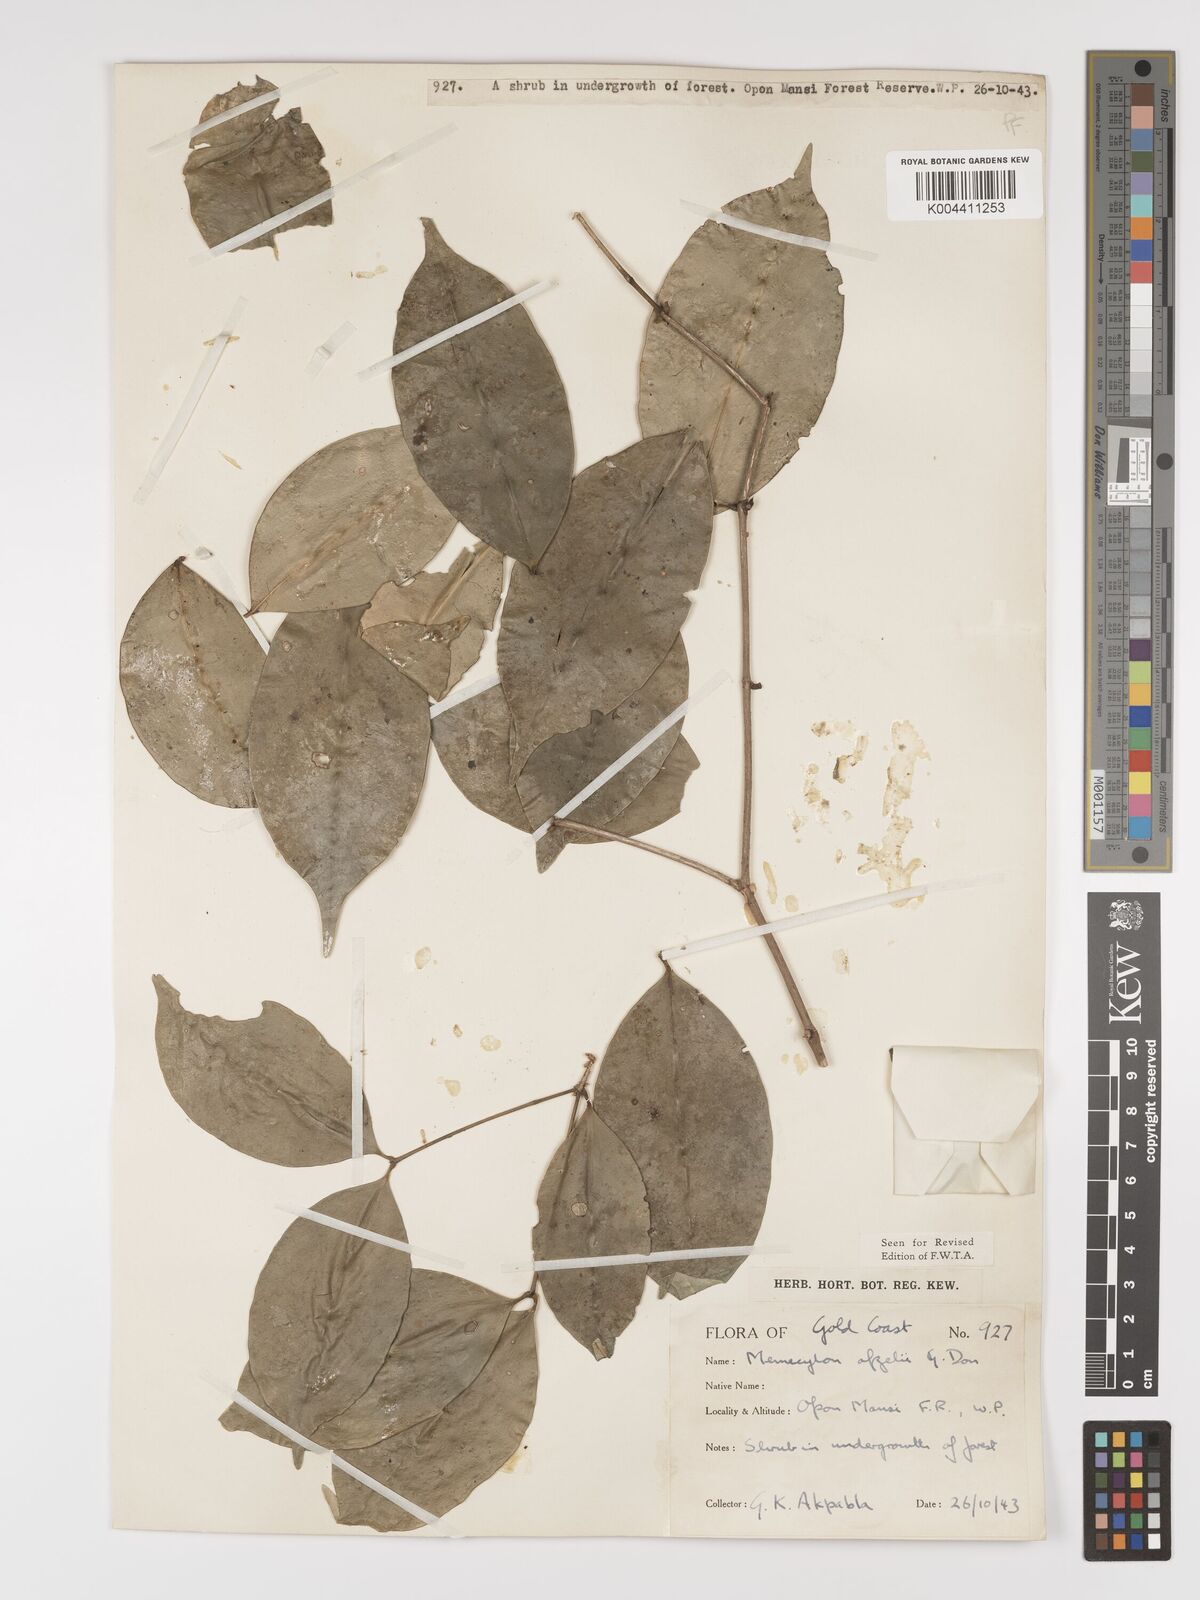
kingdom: Plantae
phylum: Tracheophyta
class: Magnoliopsida
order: Myrtales
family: Melastomataceae
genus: Memecylon
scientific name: Memecylon afzelii
